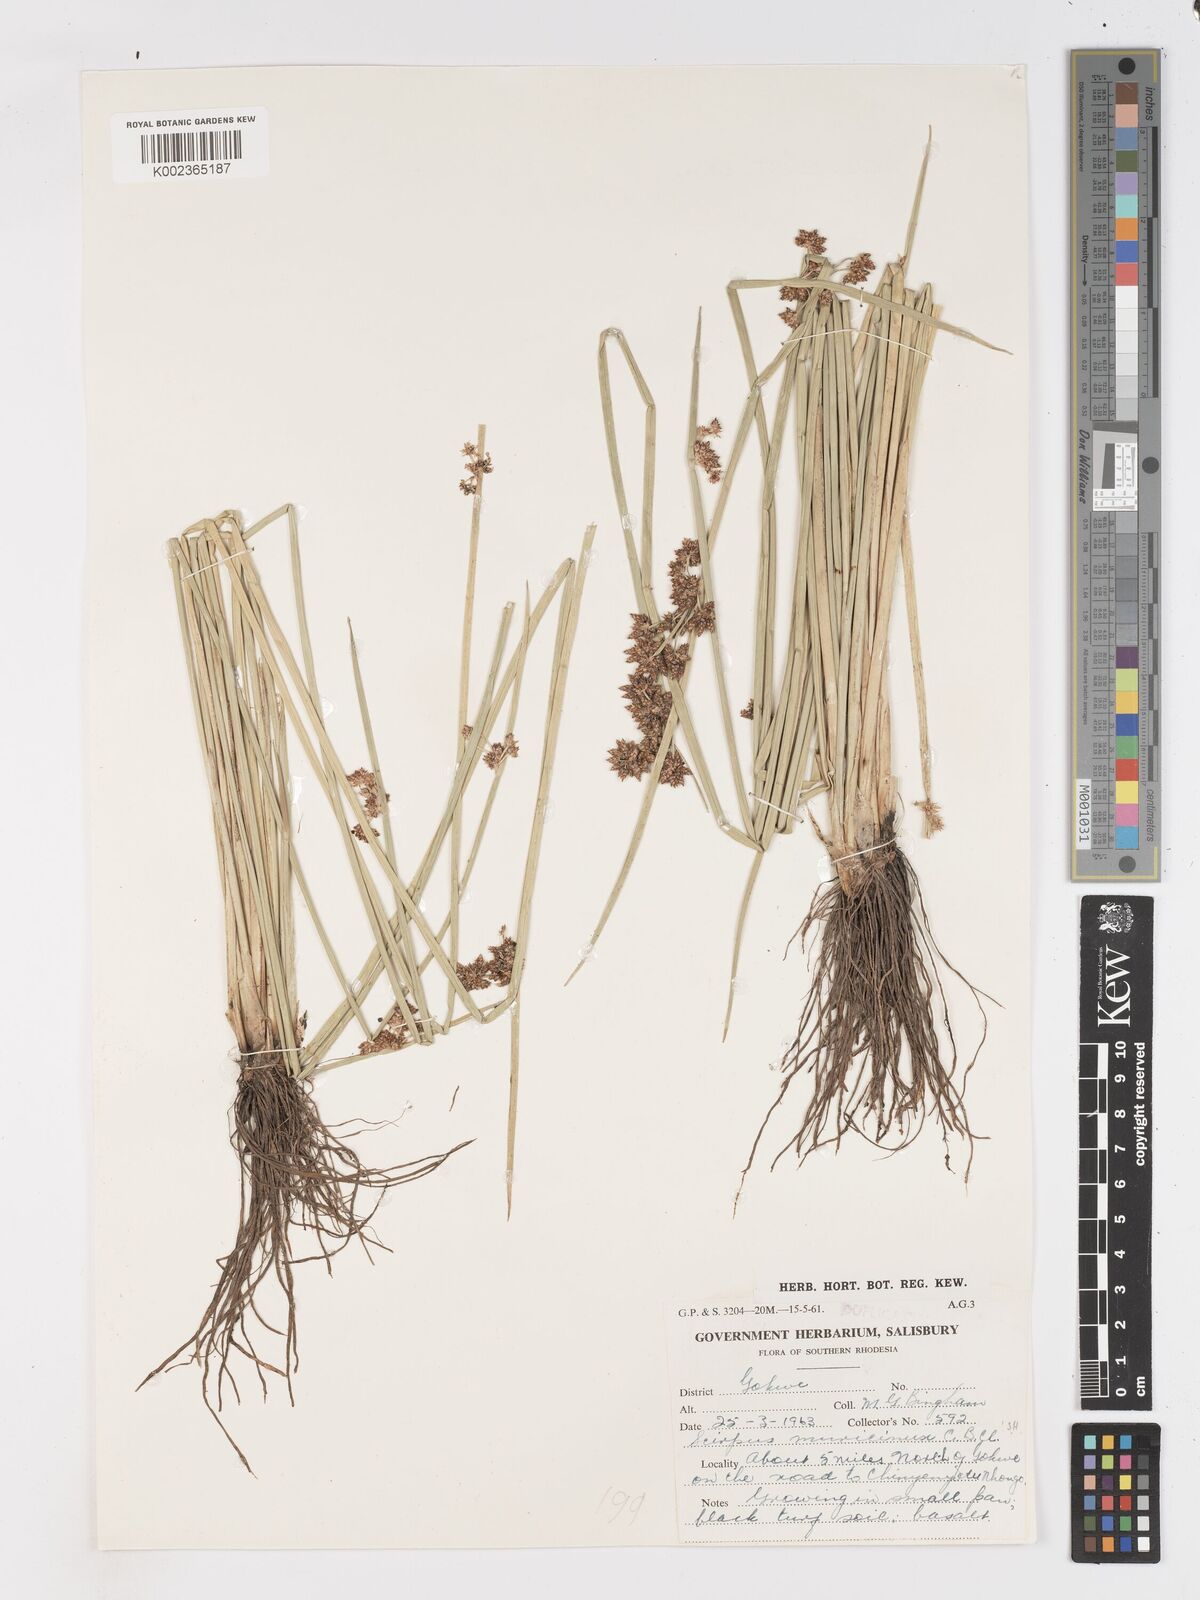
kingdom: Plantae
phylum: Tracheophyta
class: Liliopsida
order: Poales
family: Cyperaceae
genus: Schoenoplectiella
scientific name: Schoenoplectiella muricinux
